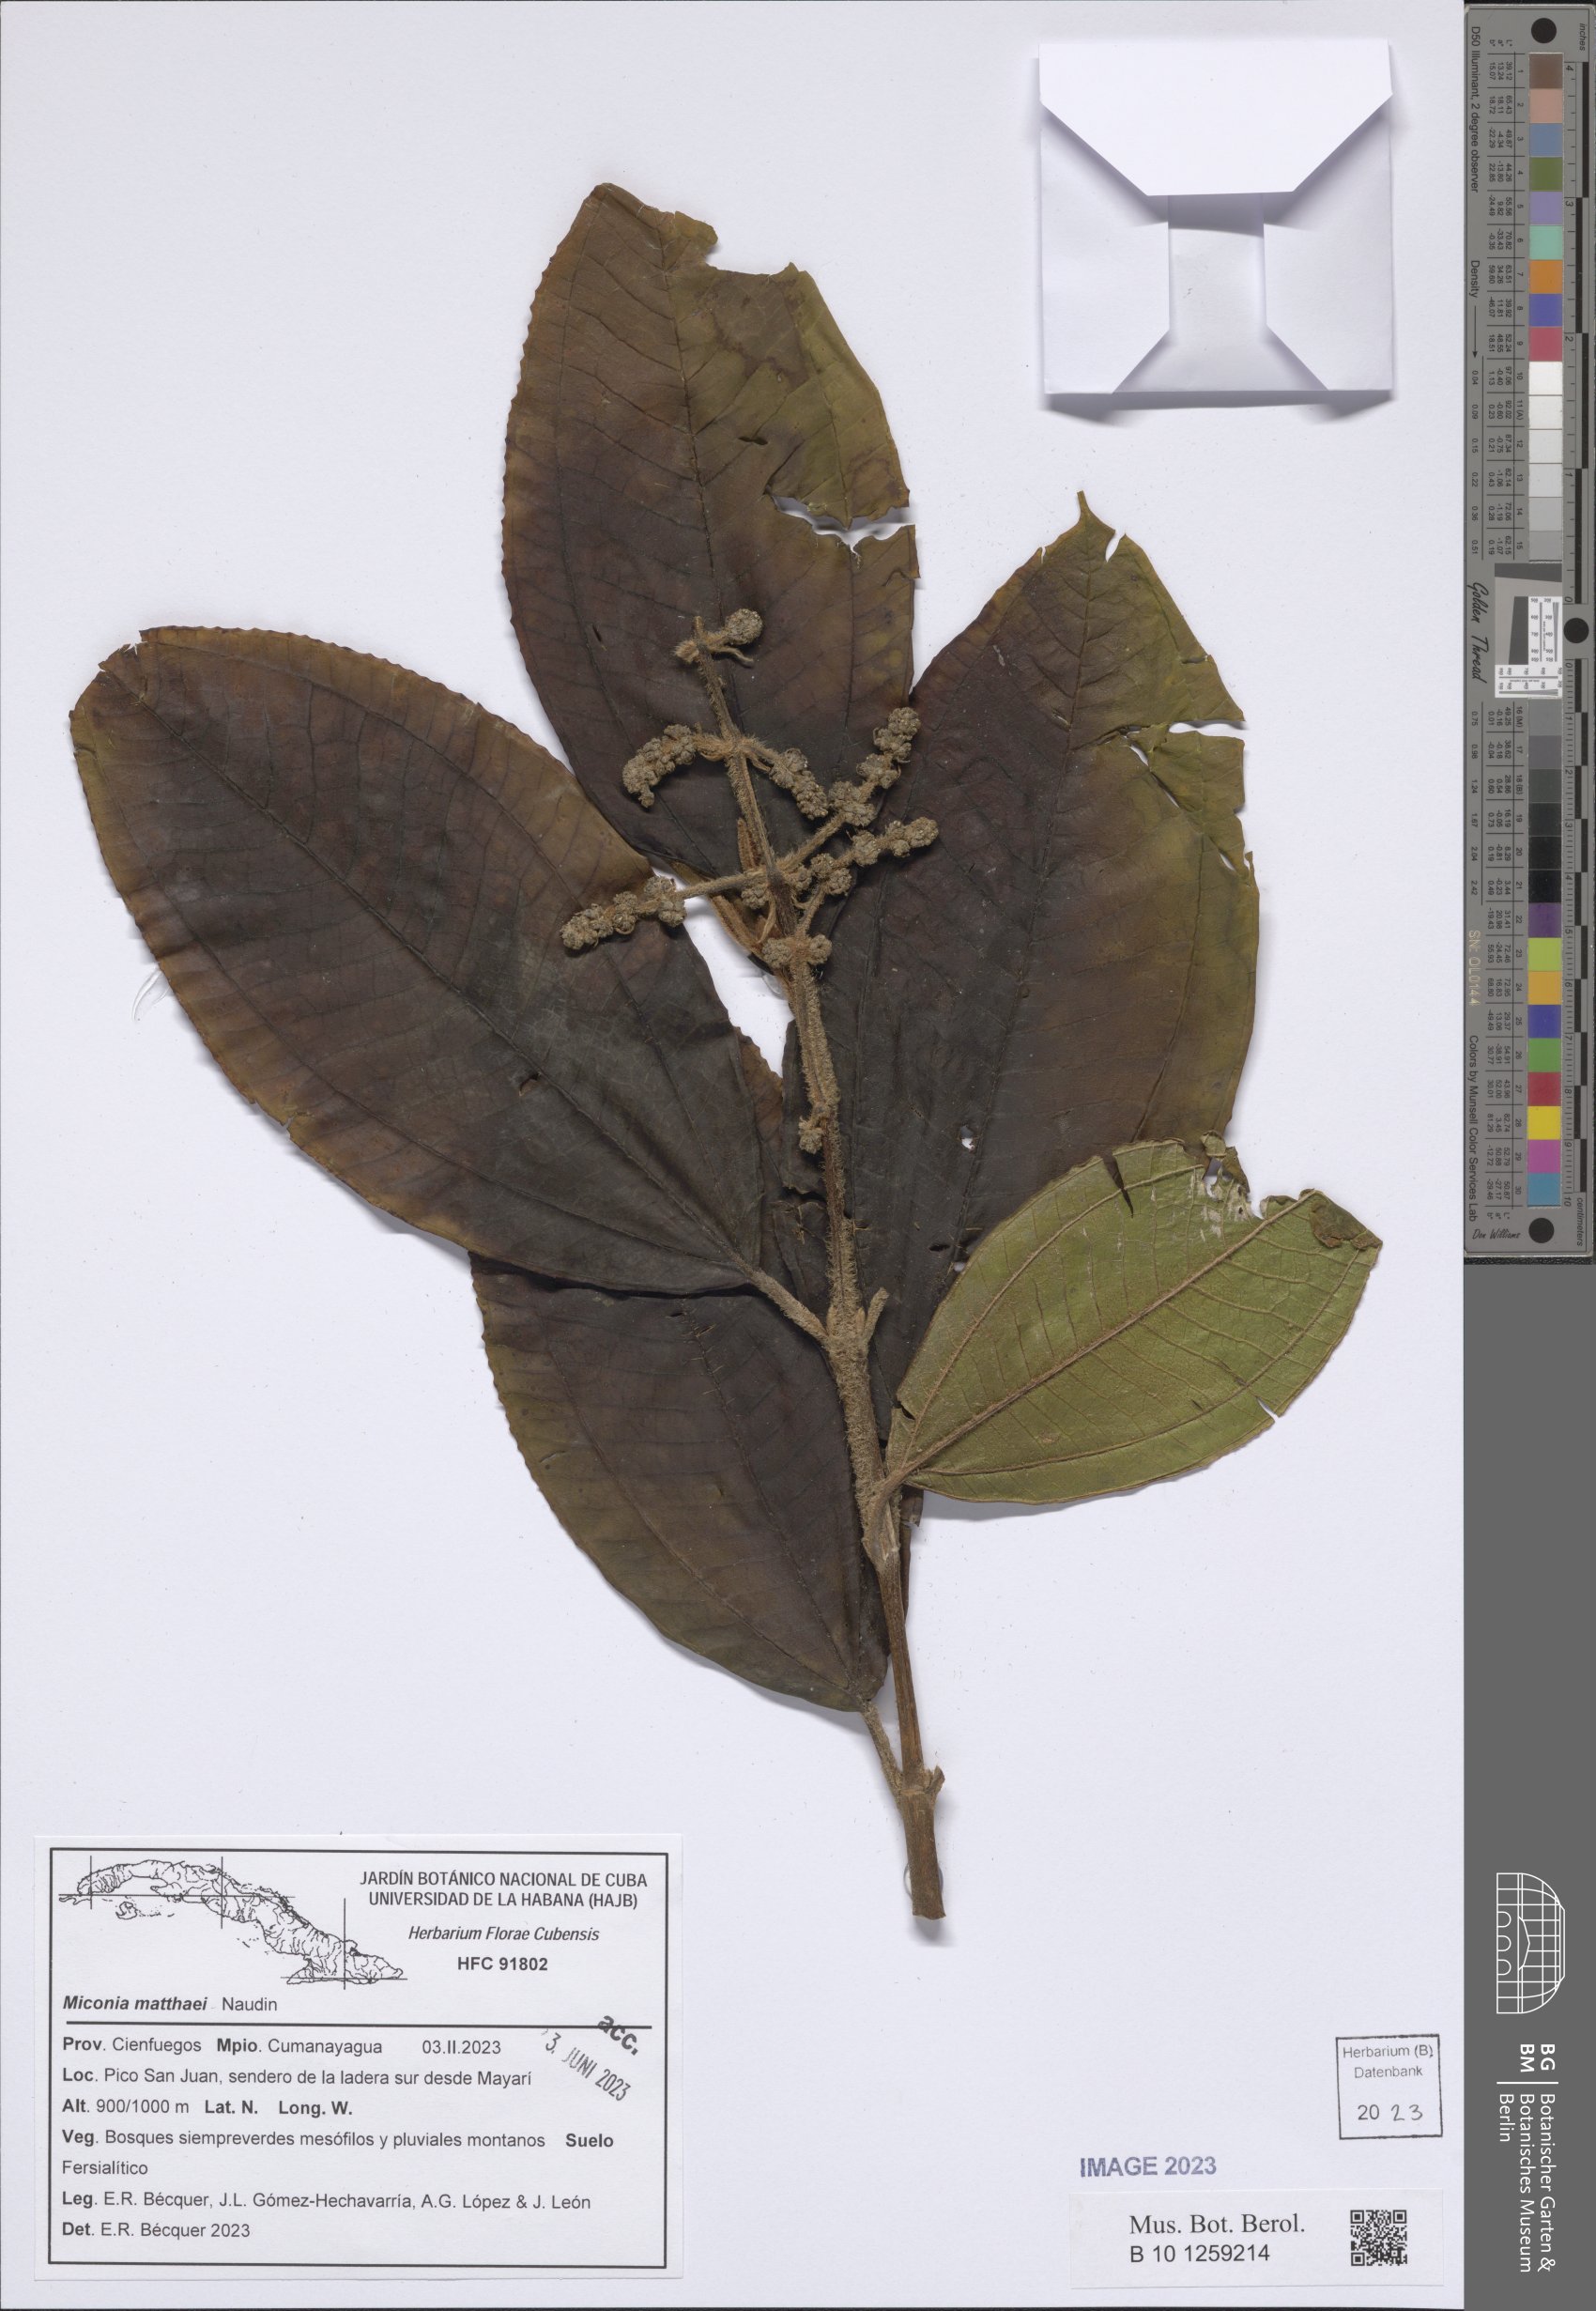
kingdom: Plantae
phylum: Tracheophyta
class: Magnoliopsida
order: Myrtales
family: Melastomataceae
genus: Miconia
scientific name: Miconia matthaei
